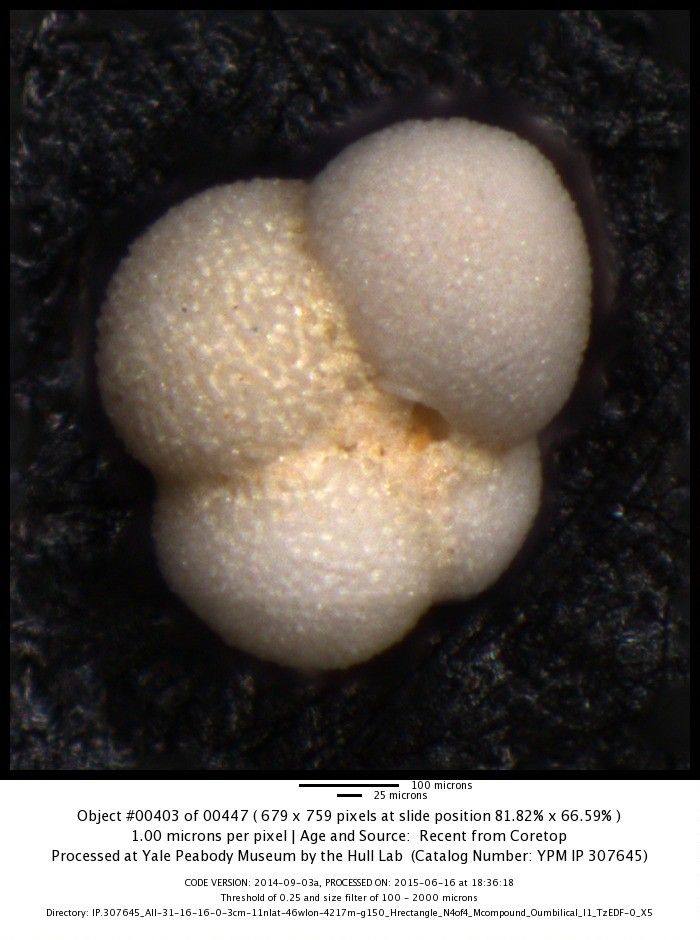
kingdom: Chromista
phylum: Foraminifera
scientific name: Foraminifera
